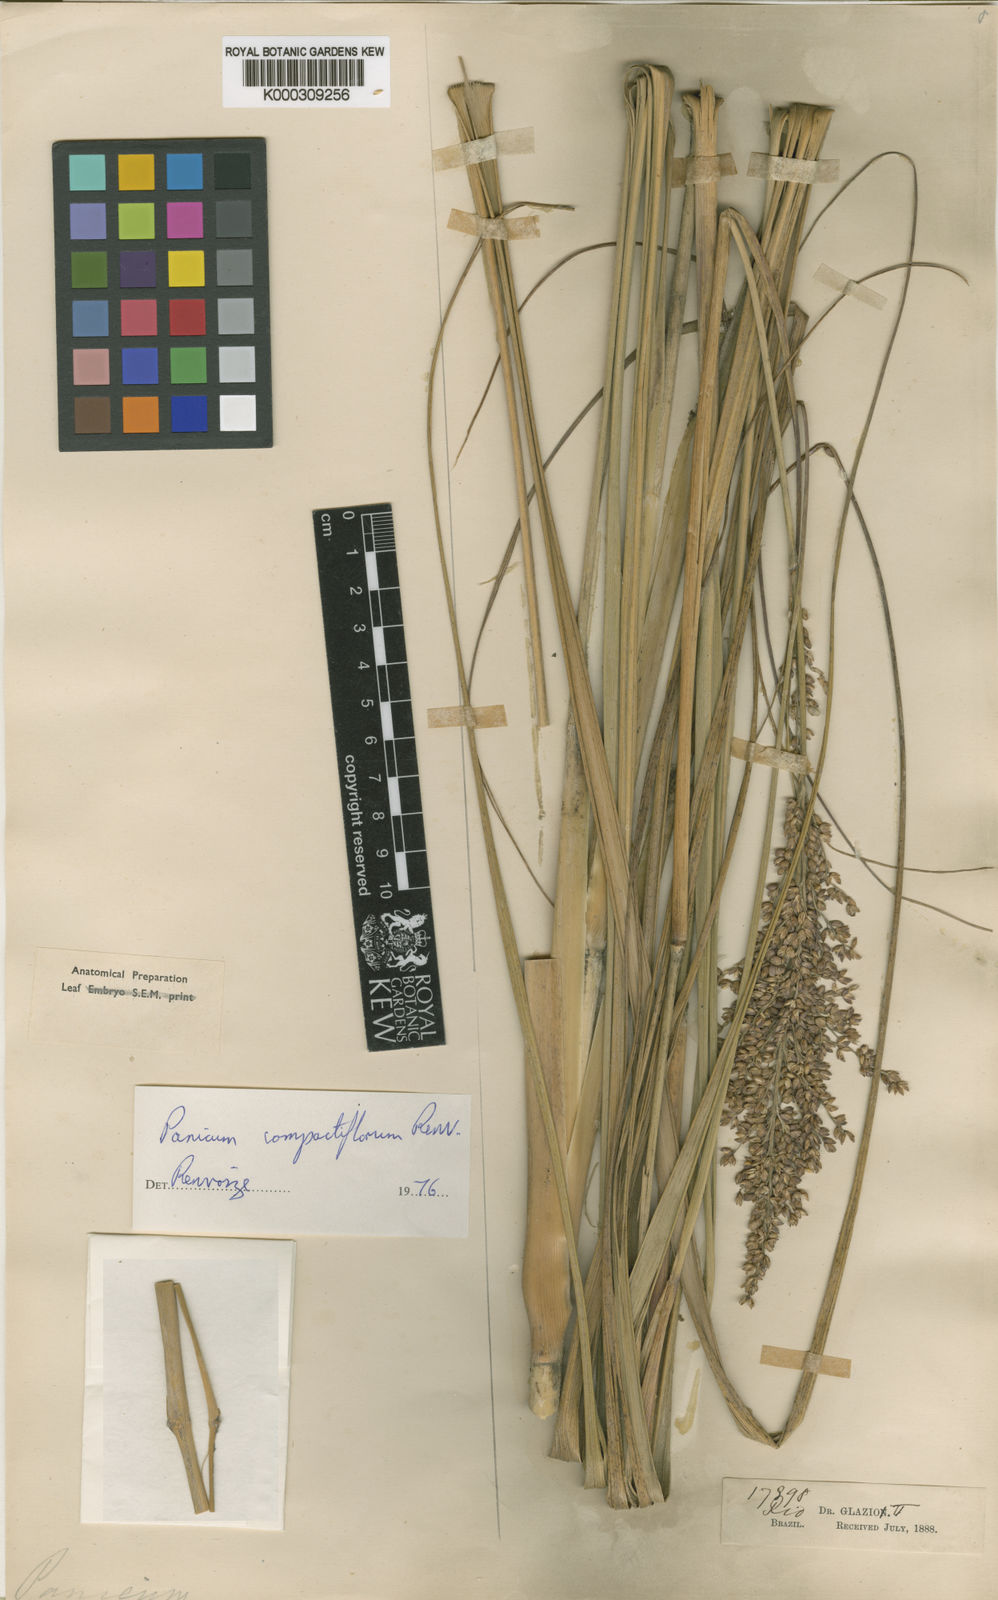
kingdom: Plantae
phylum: Tracheophyta
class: Liliopsida
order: Poales
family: Poaceae
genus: Renvoizea
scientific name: Renvoizea glaziovii
